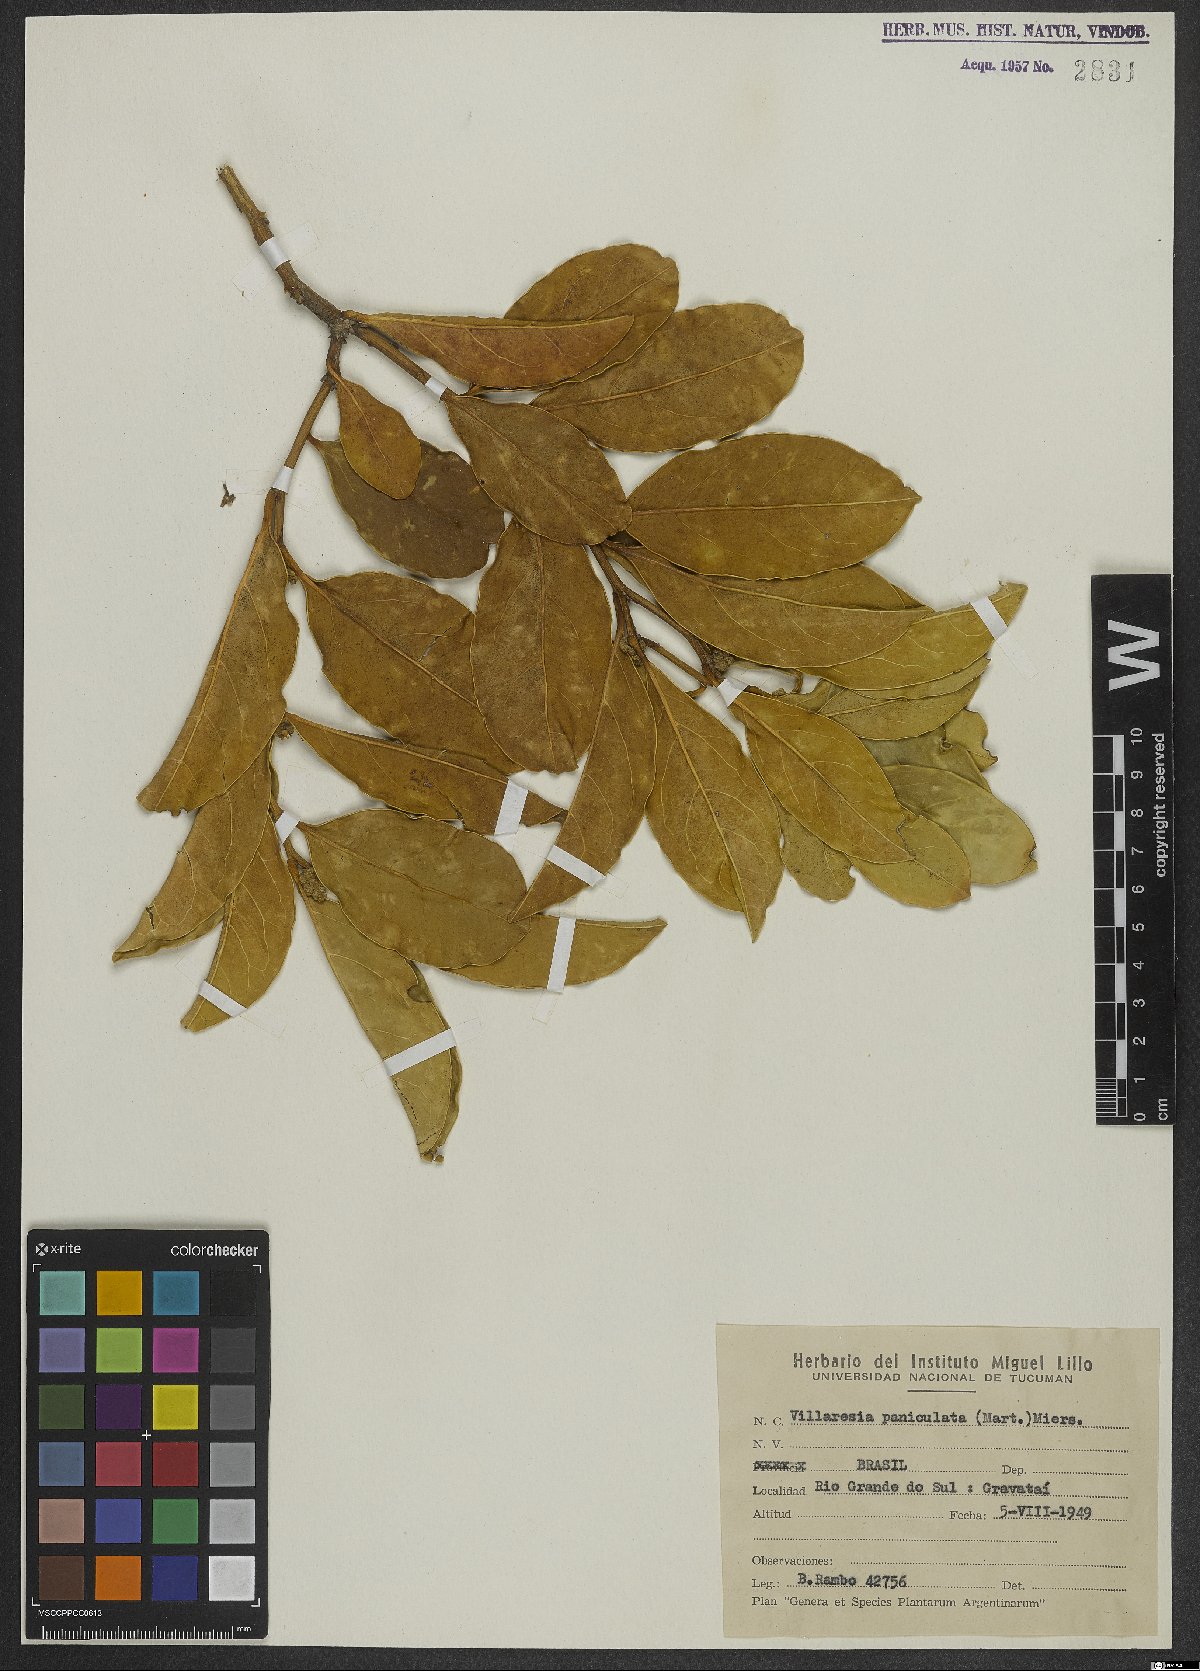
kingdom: Plantae
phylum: Tracheophyta
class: Magnoliopsida
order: Cardiopteridales
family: Cardiopteridaceae
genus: Citronella
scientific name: Citronella paniculata
